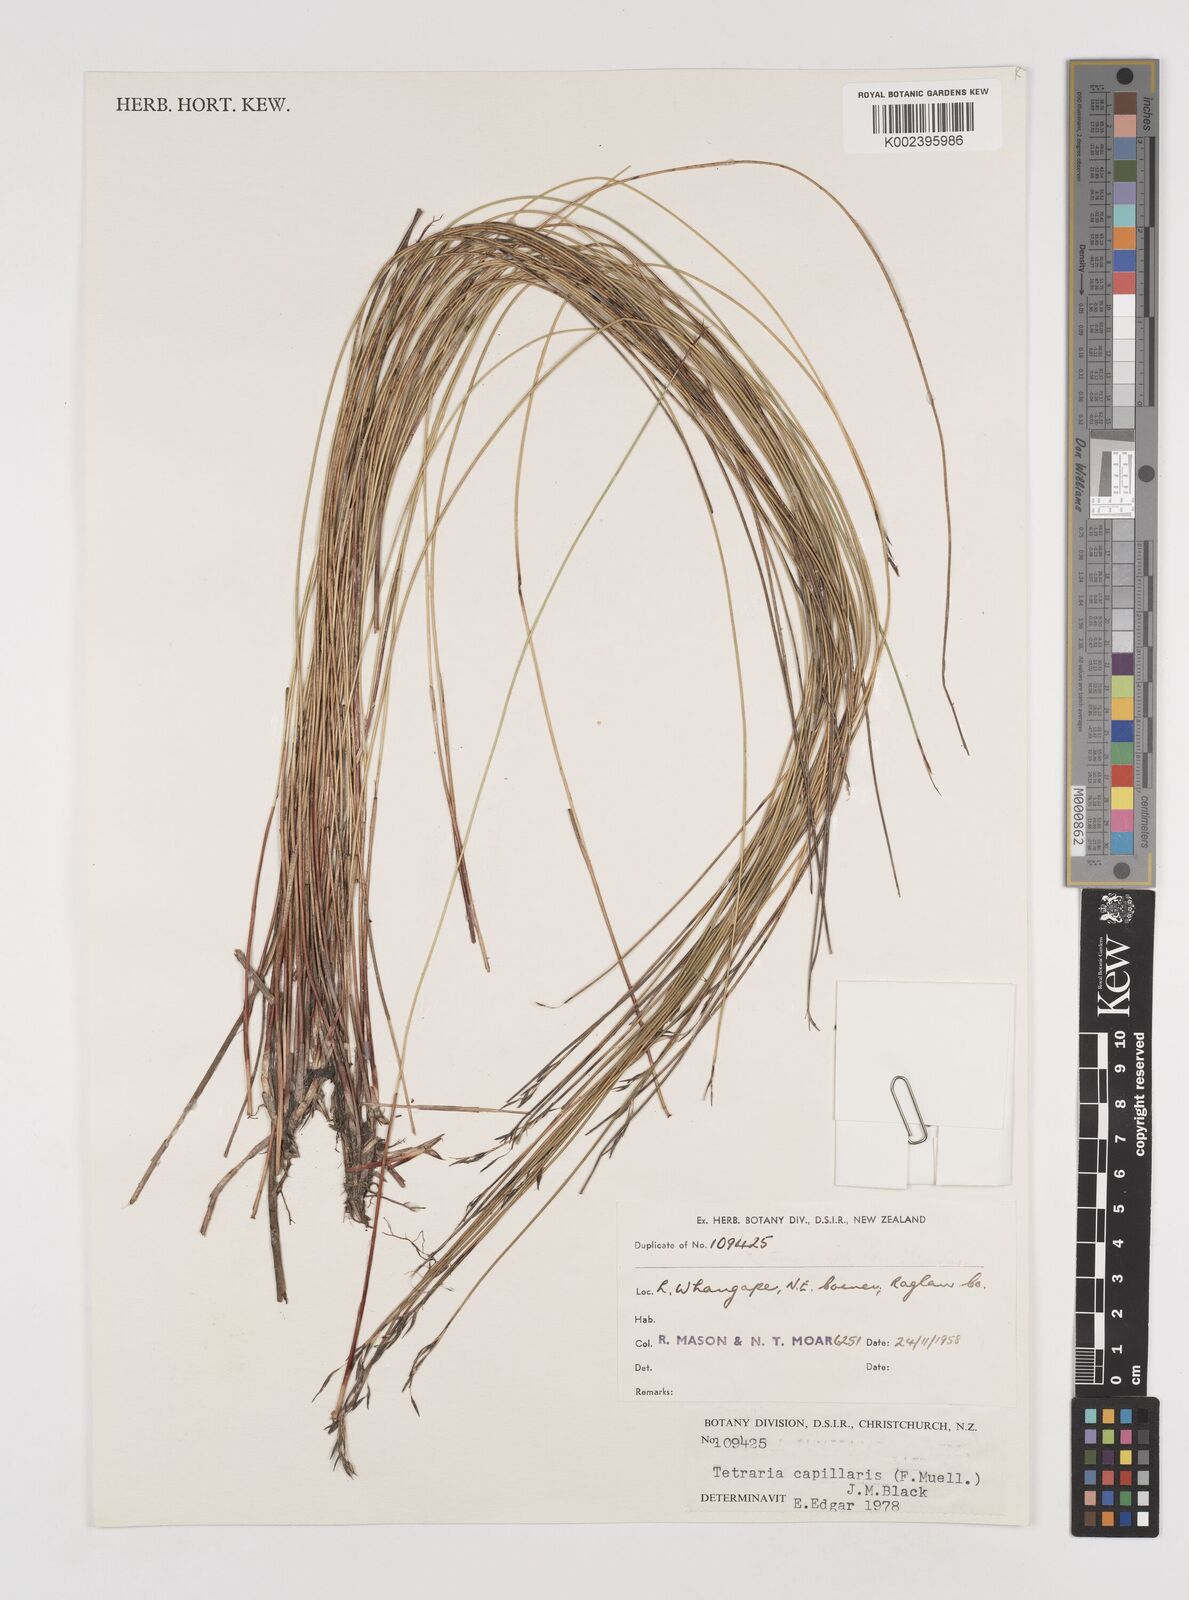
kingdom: Plantae
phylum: Tracheophyta
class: Liliopsida
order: Poales
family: Cyperaceae
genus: Tetraria
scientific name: Tetraria capillaris
